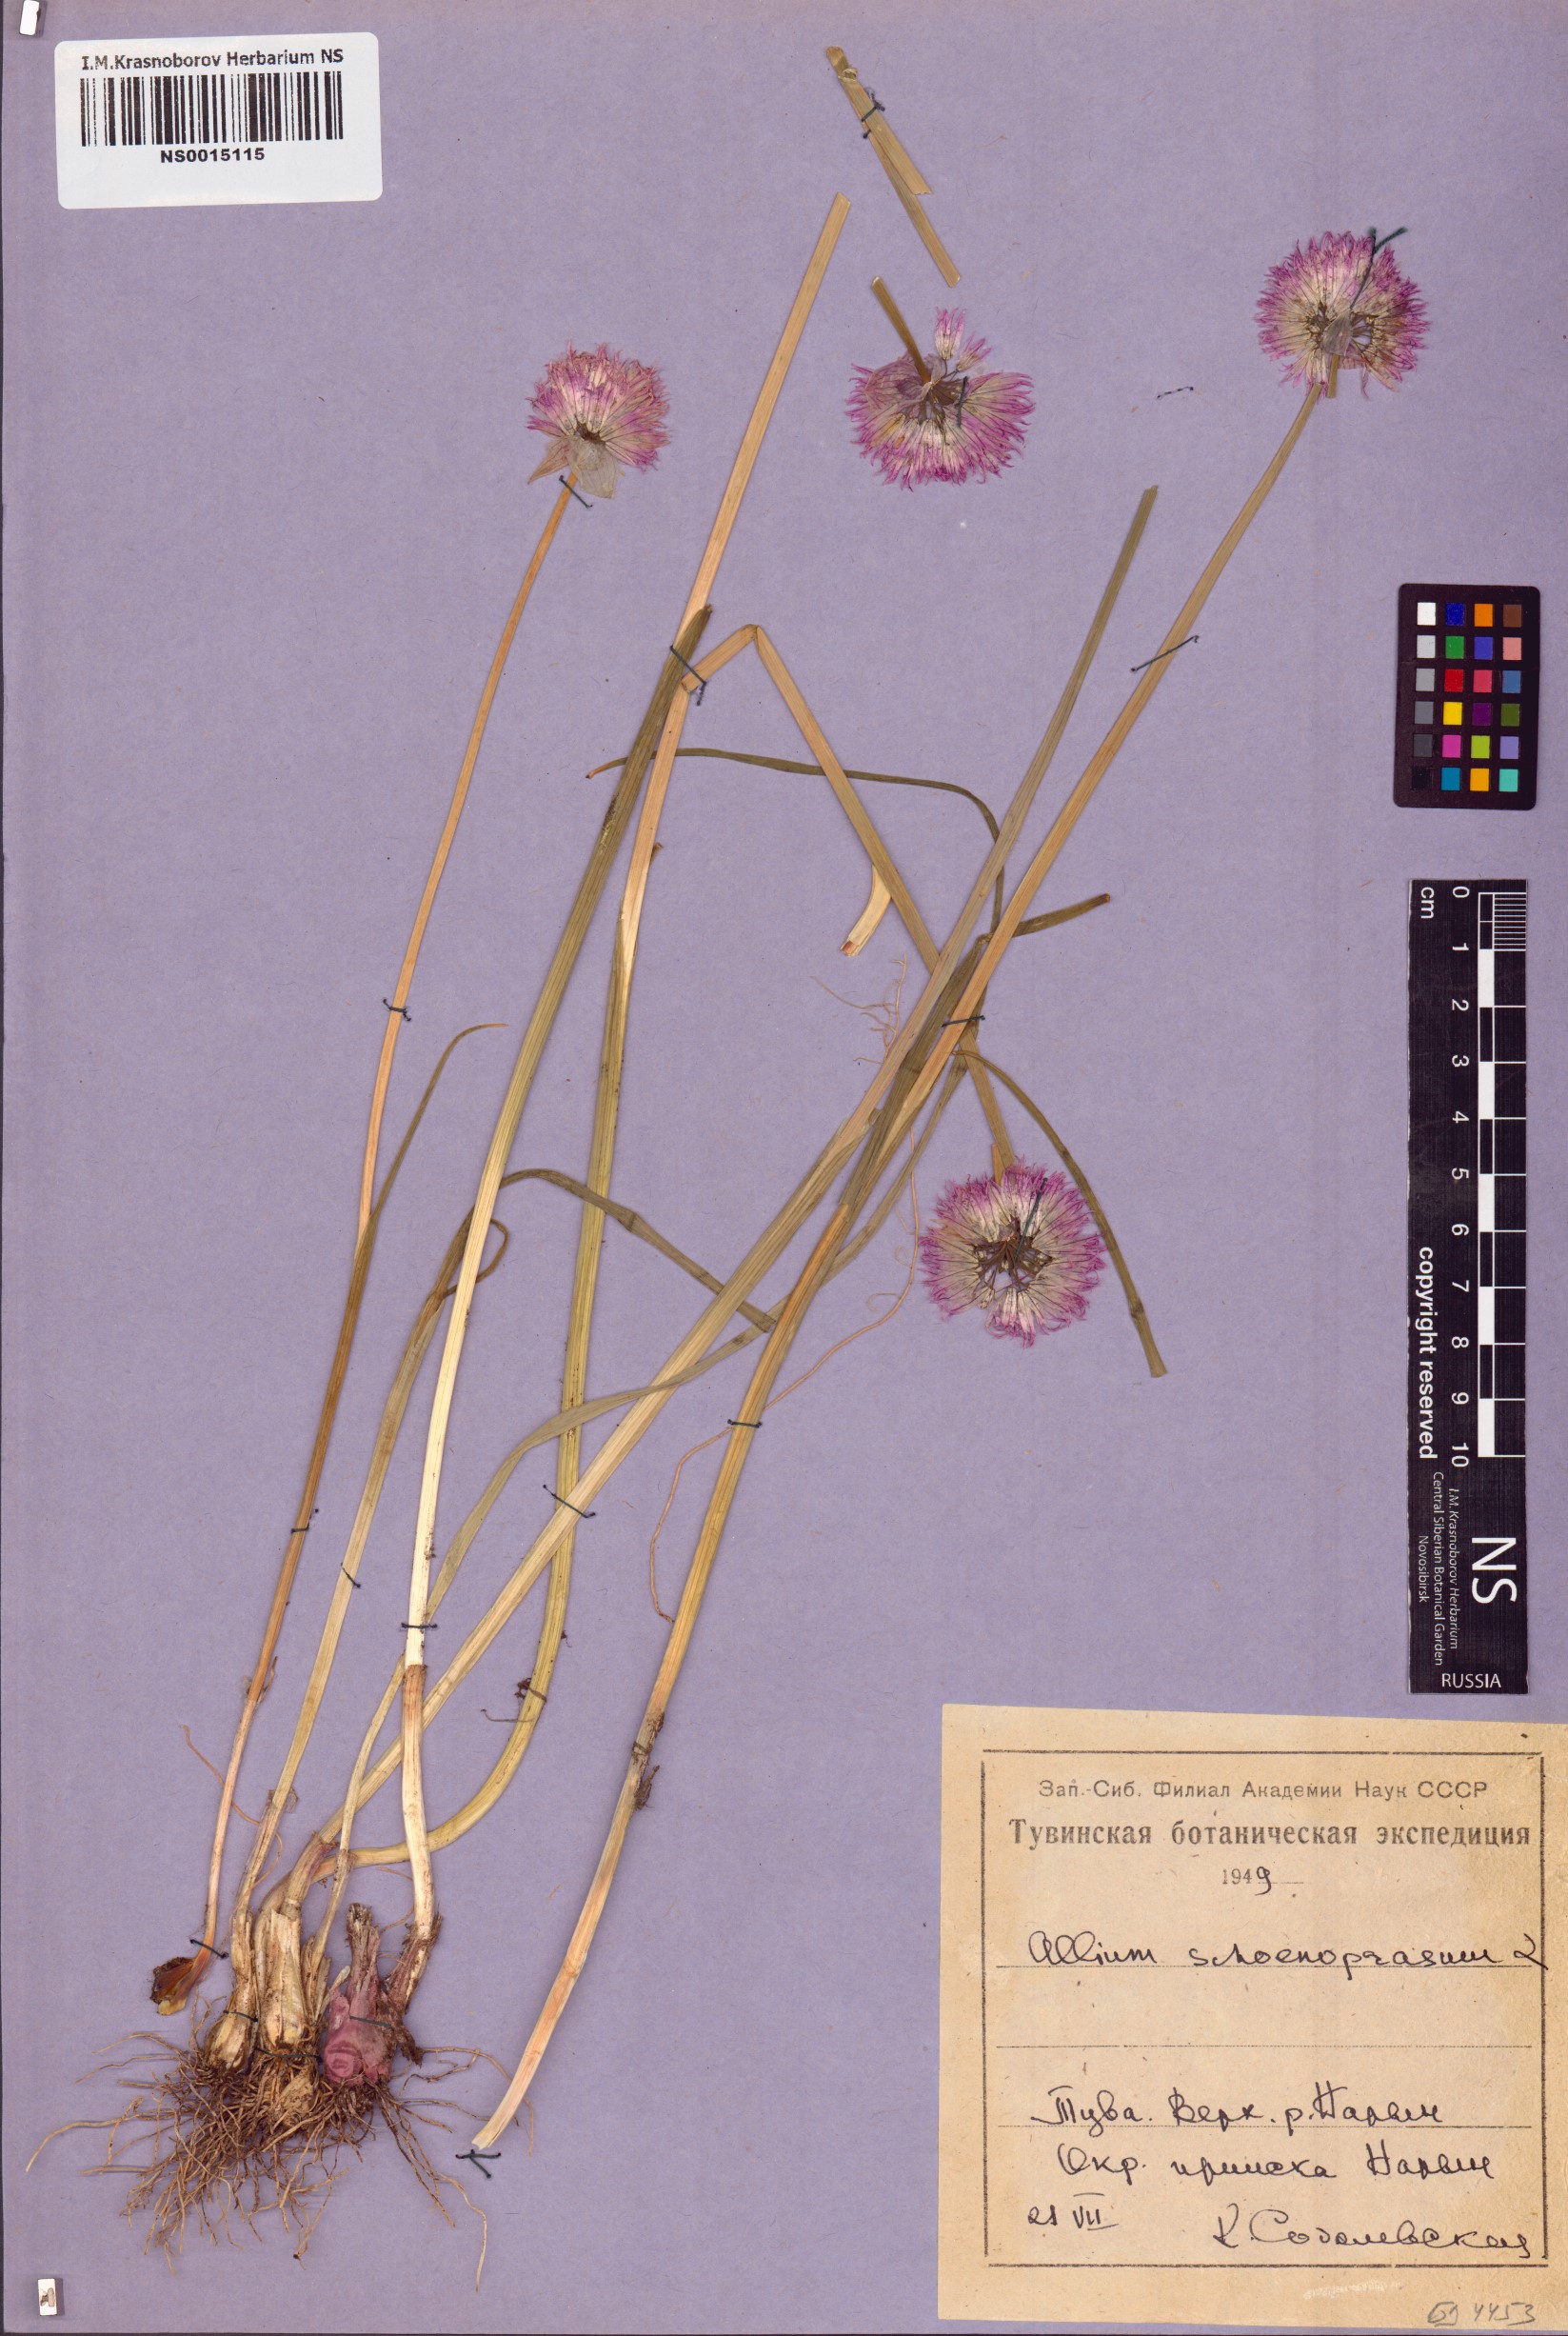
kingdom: Plantae
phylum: Tracheophyta
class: Liliopsida
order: Asparagales
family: Amaryllidaceae
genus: Allium
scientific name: Allium schoenoprasum
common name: Chives
